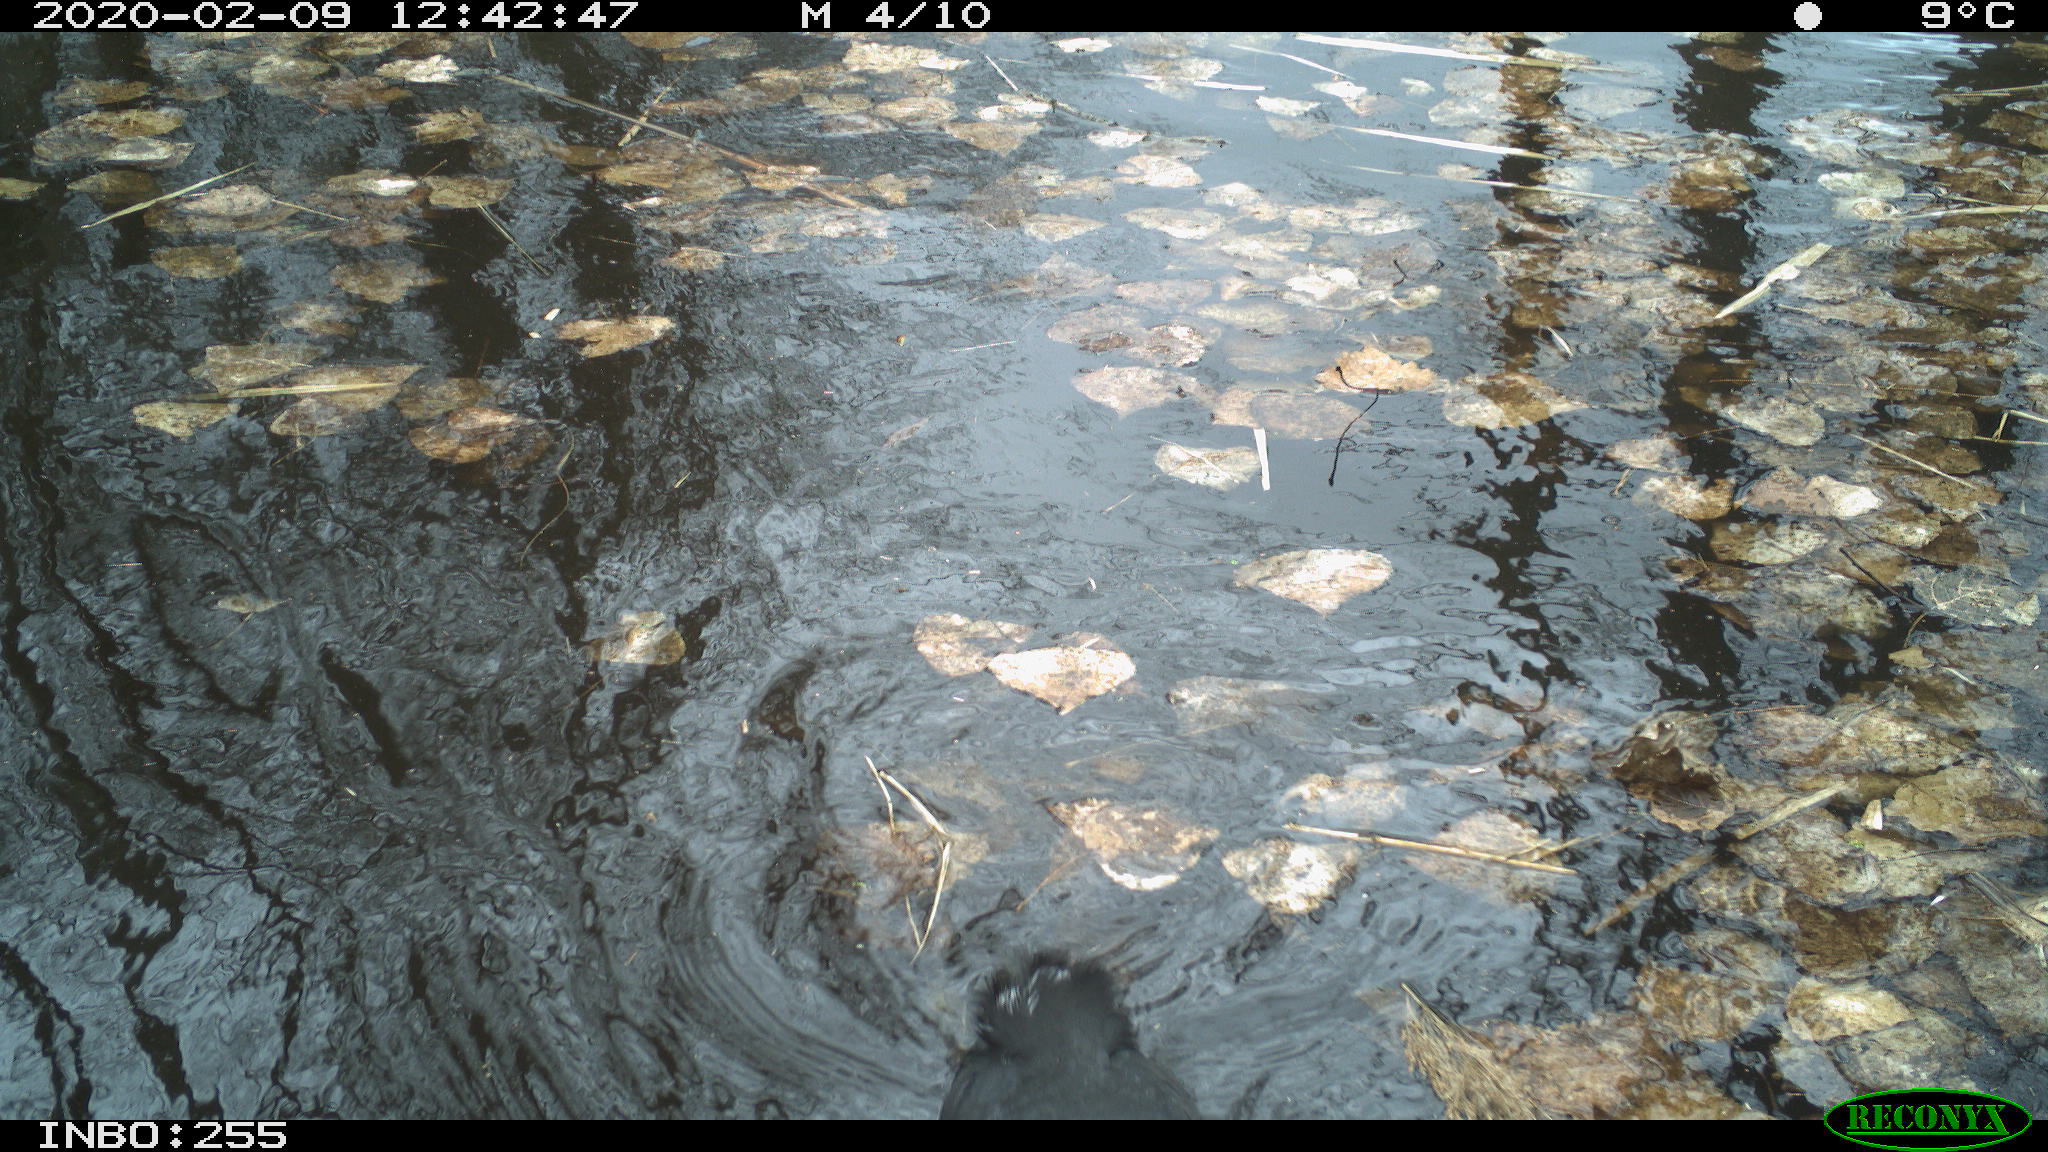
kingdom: Animalia
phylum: Chordata
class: Aves
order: Gruiformes
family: Rallidae
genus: Fulica
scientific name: Fulica atra
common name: Eurasian coot
